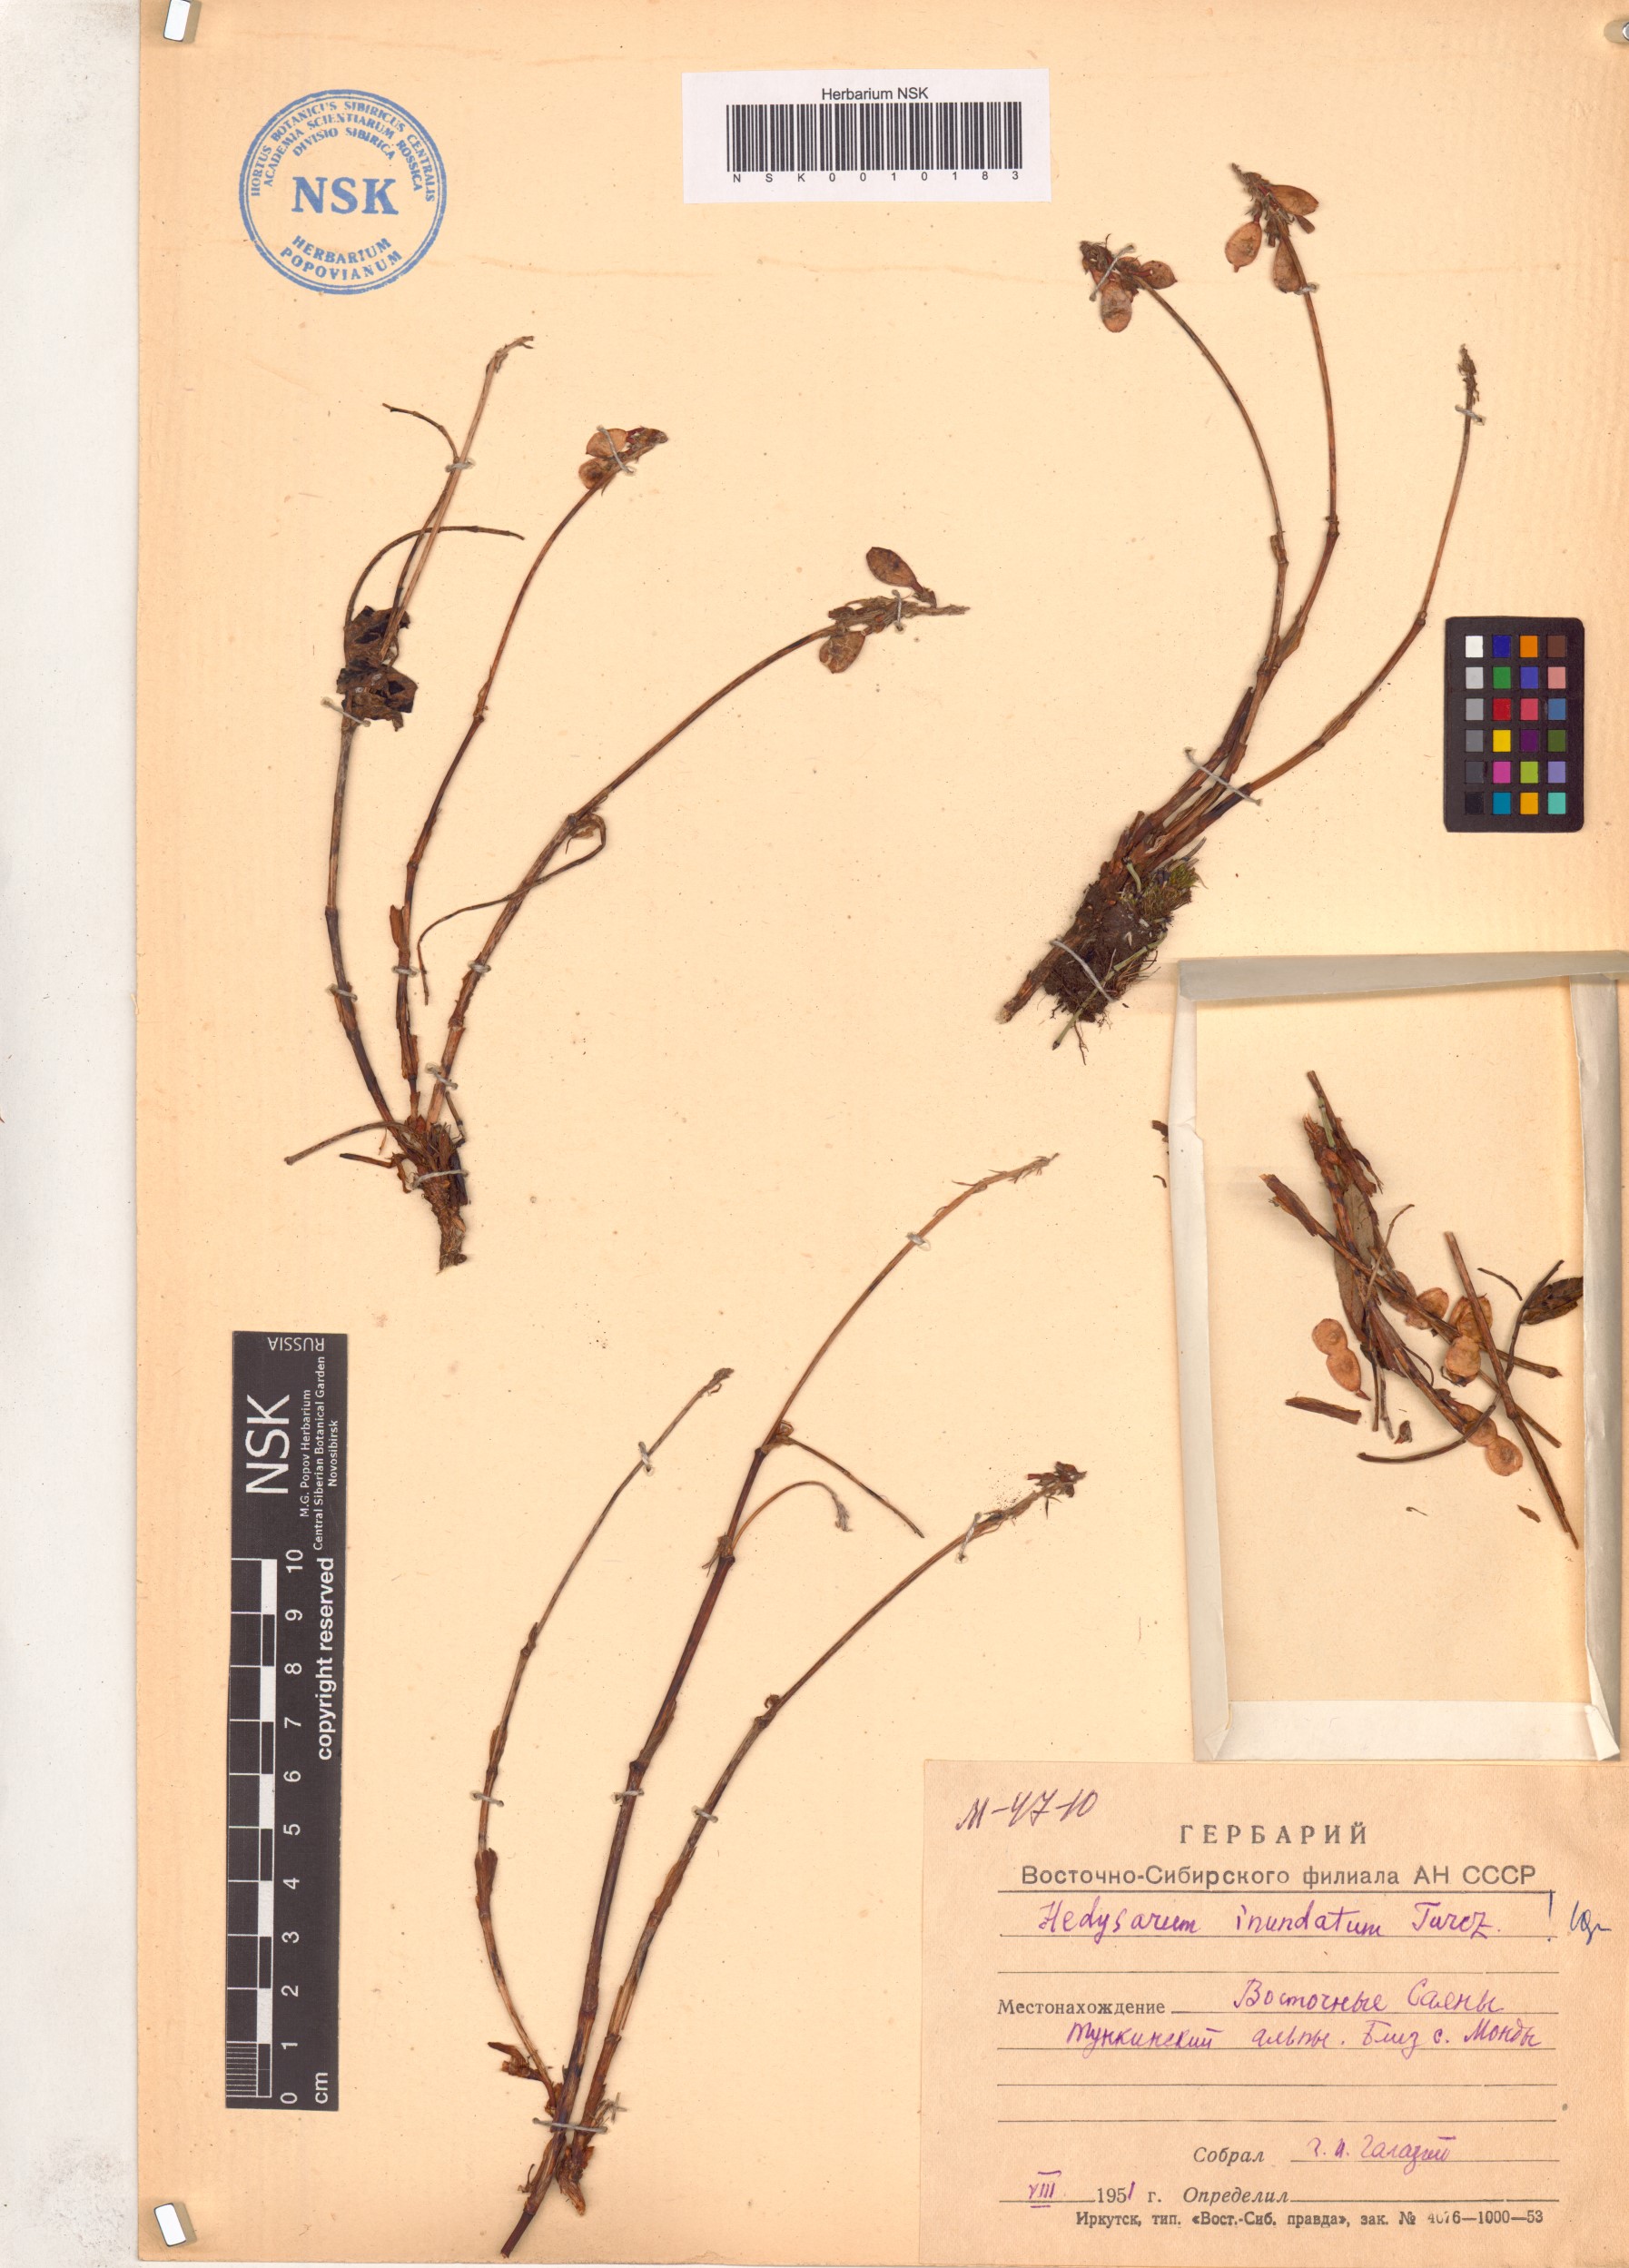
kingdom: Plantae
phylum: Tracheophyta
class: Magnoliopsida
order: Fabales
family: Fabaceae
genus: Hedysarum
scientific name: Hedysarum inundatum
